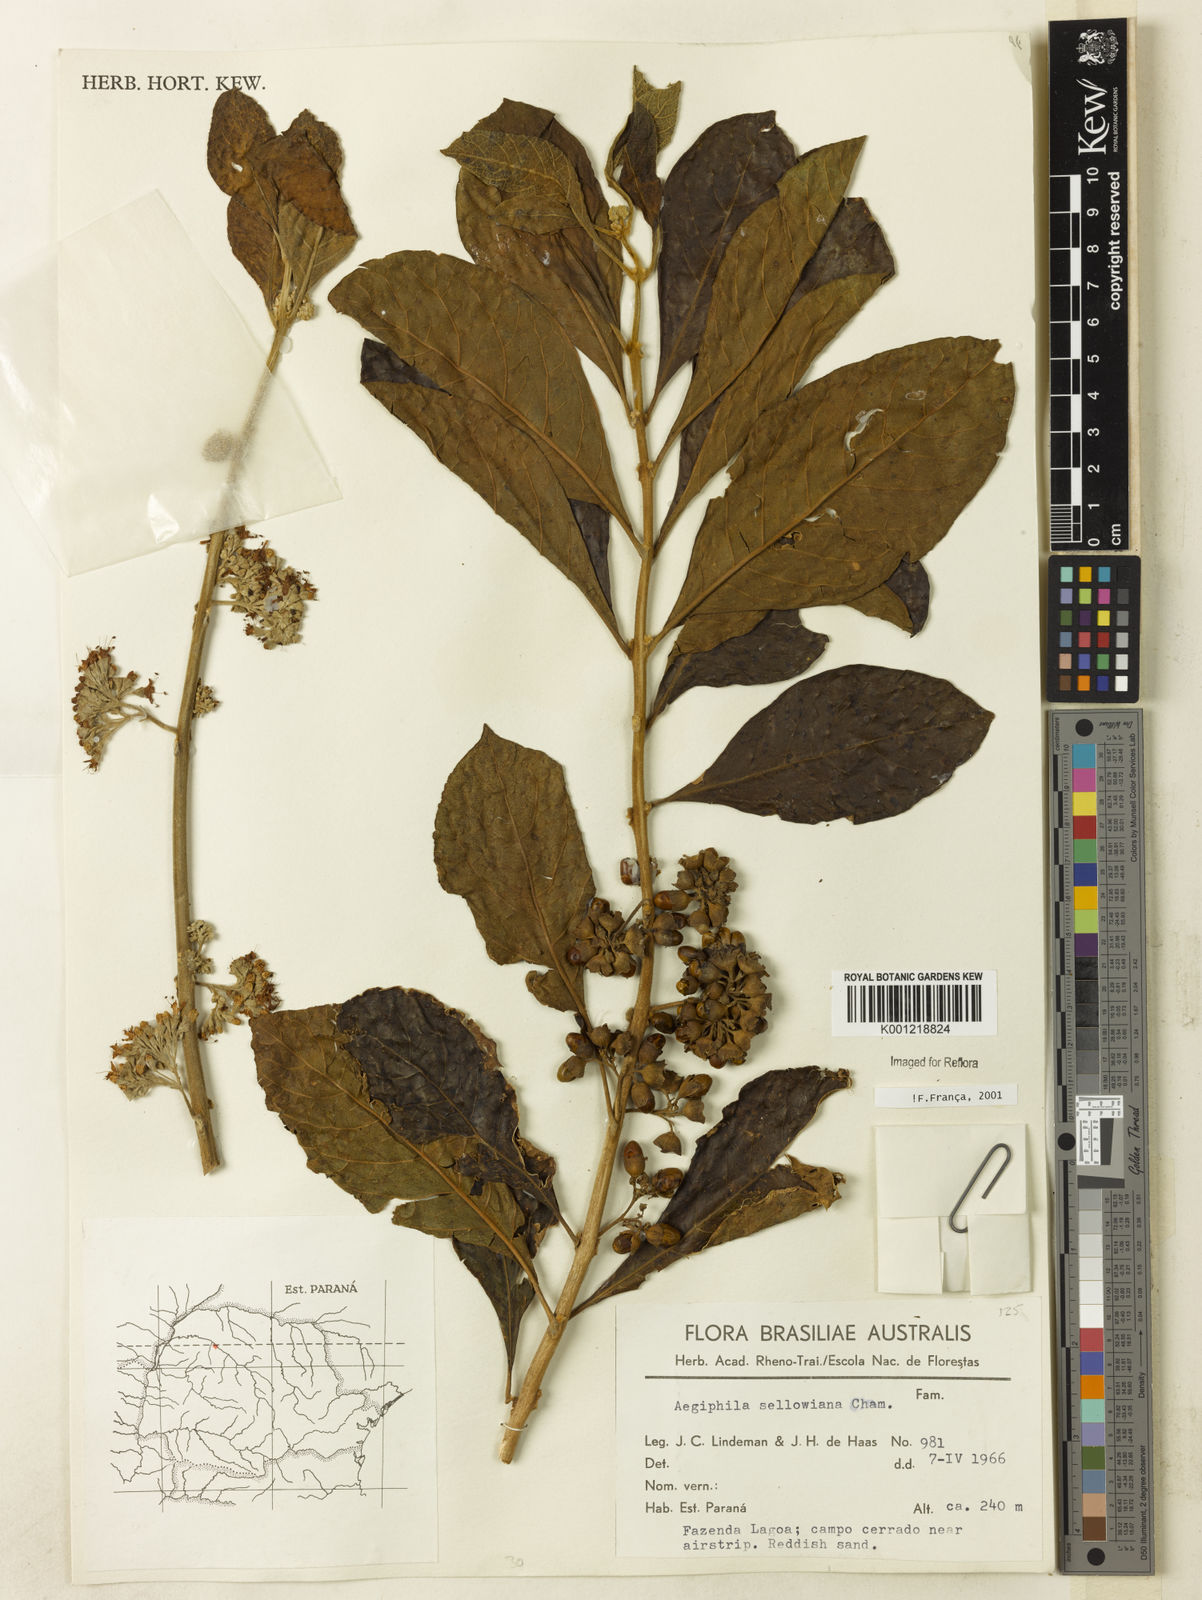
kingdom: Plantae
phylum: Tracheophyta
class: Magnoliopsida
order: Lamiales
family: Lamiaceae
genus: Aegiphila
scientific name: Aegiphila verticillata
